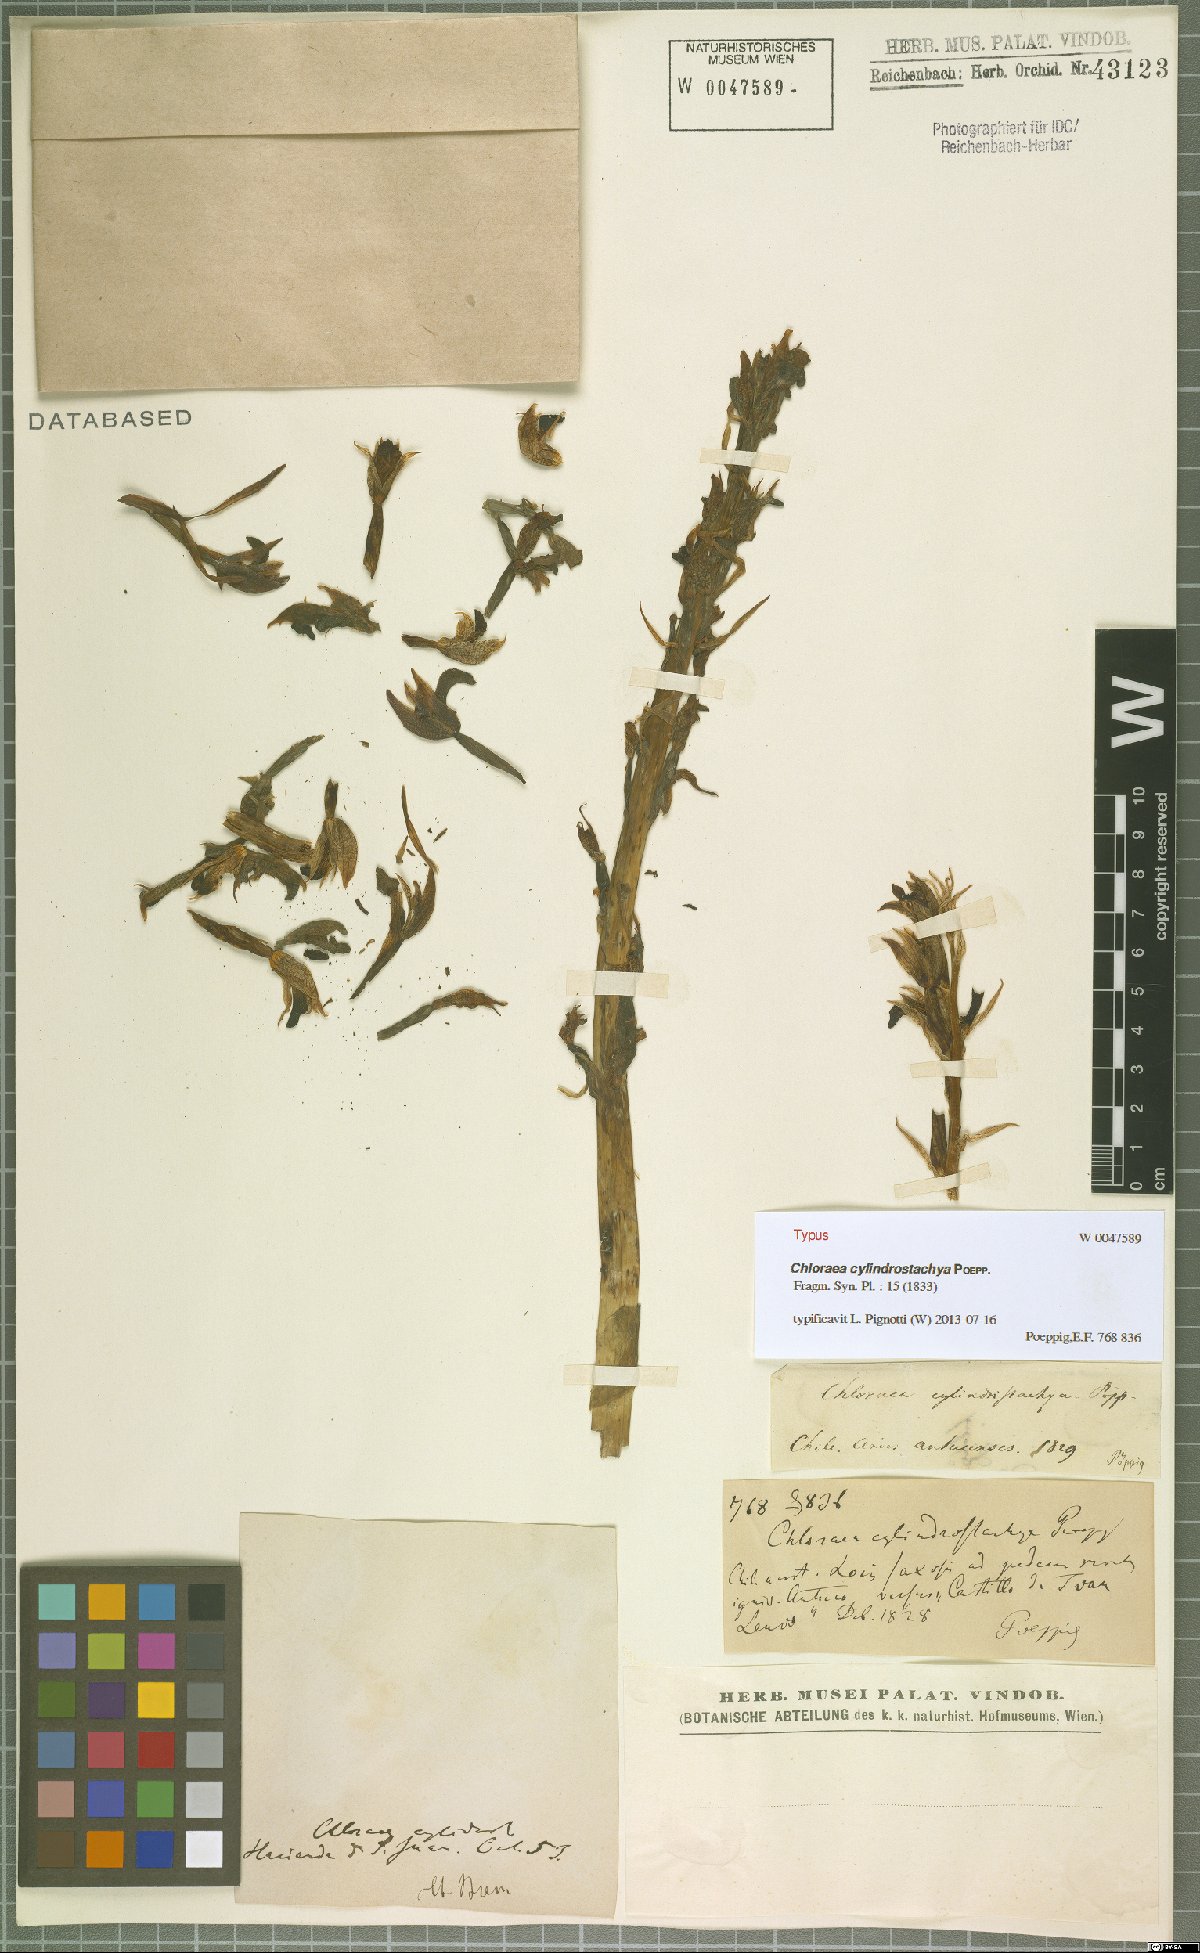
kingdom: Plantae
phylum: Tracheophyta
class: Liliopsida
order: Asparagales
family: Orchidaceae
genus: Chloraea
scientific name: Chloraea cylindrostachya
